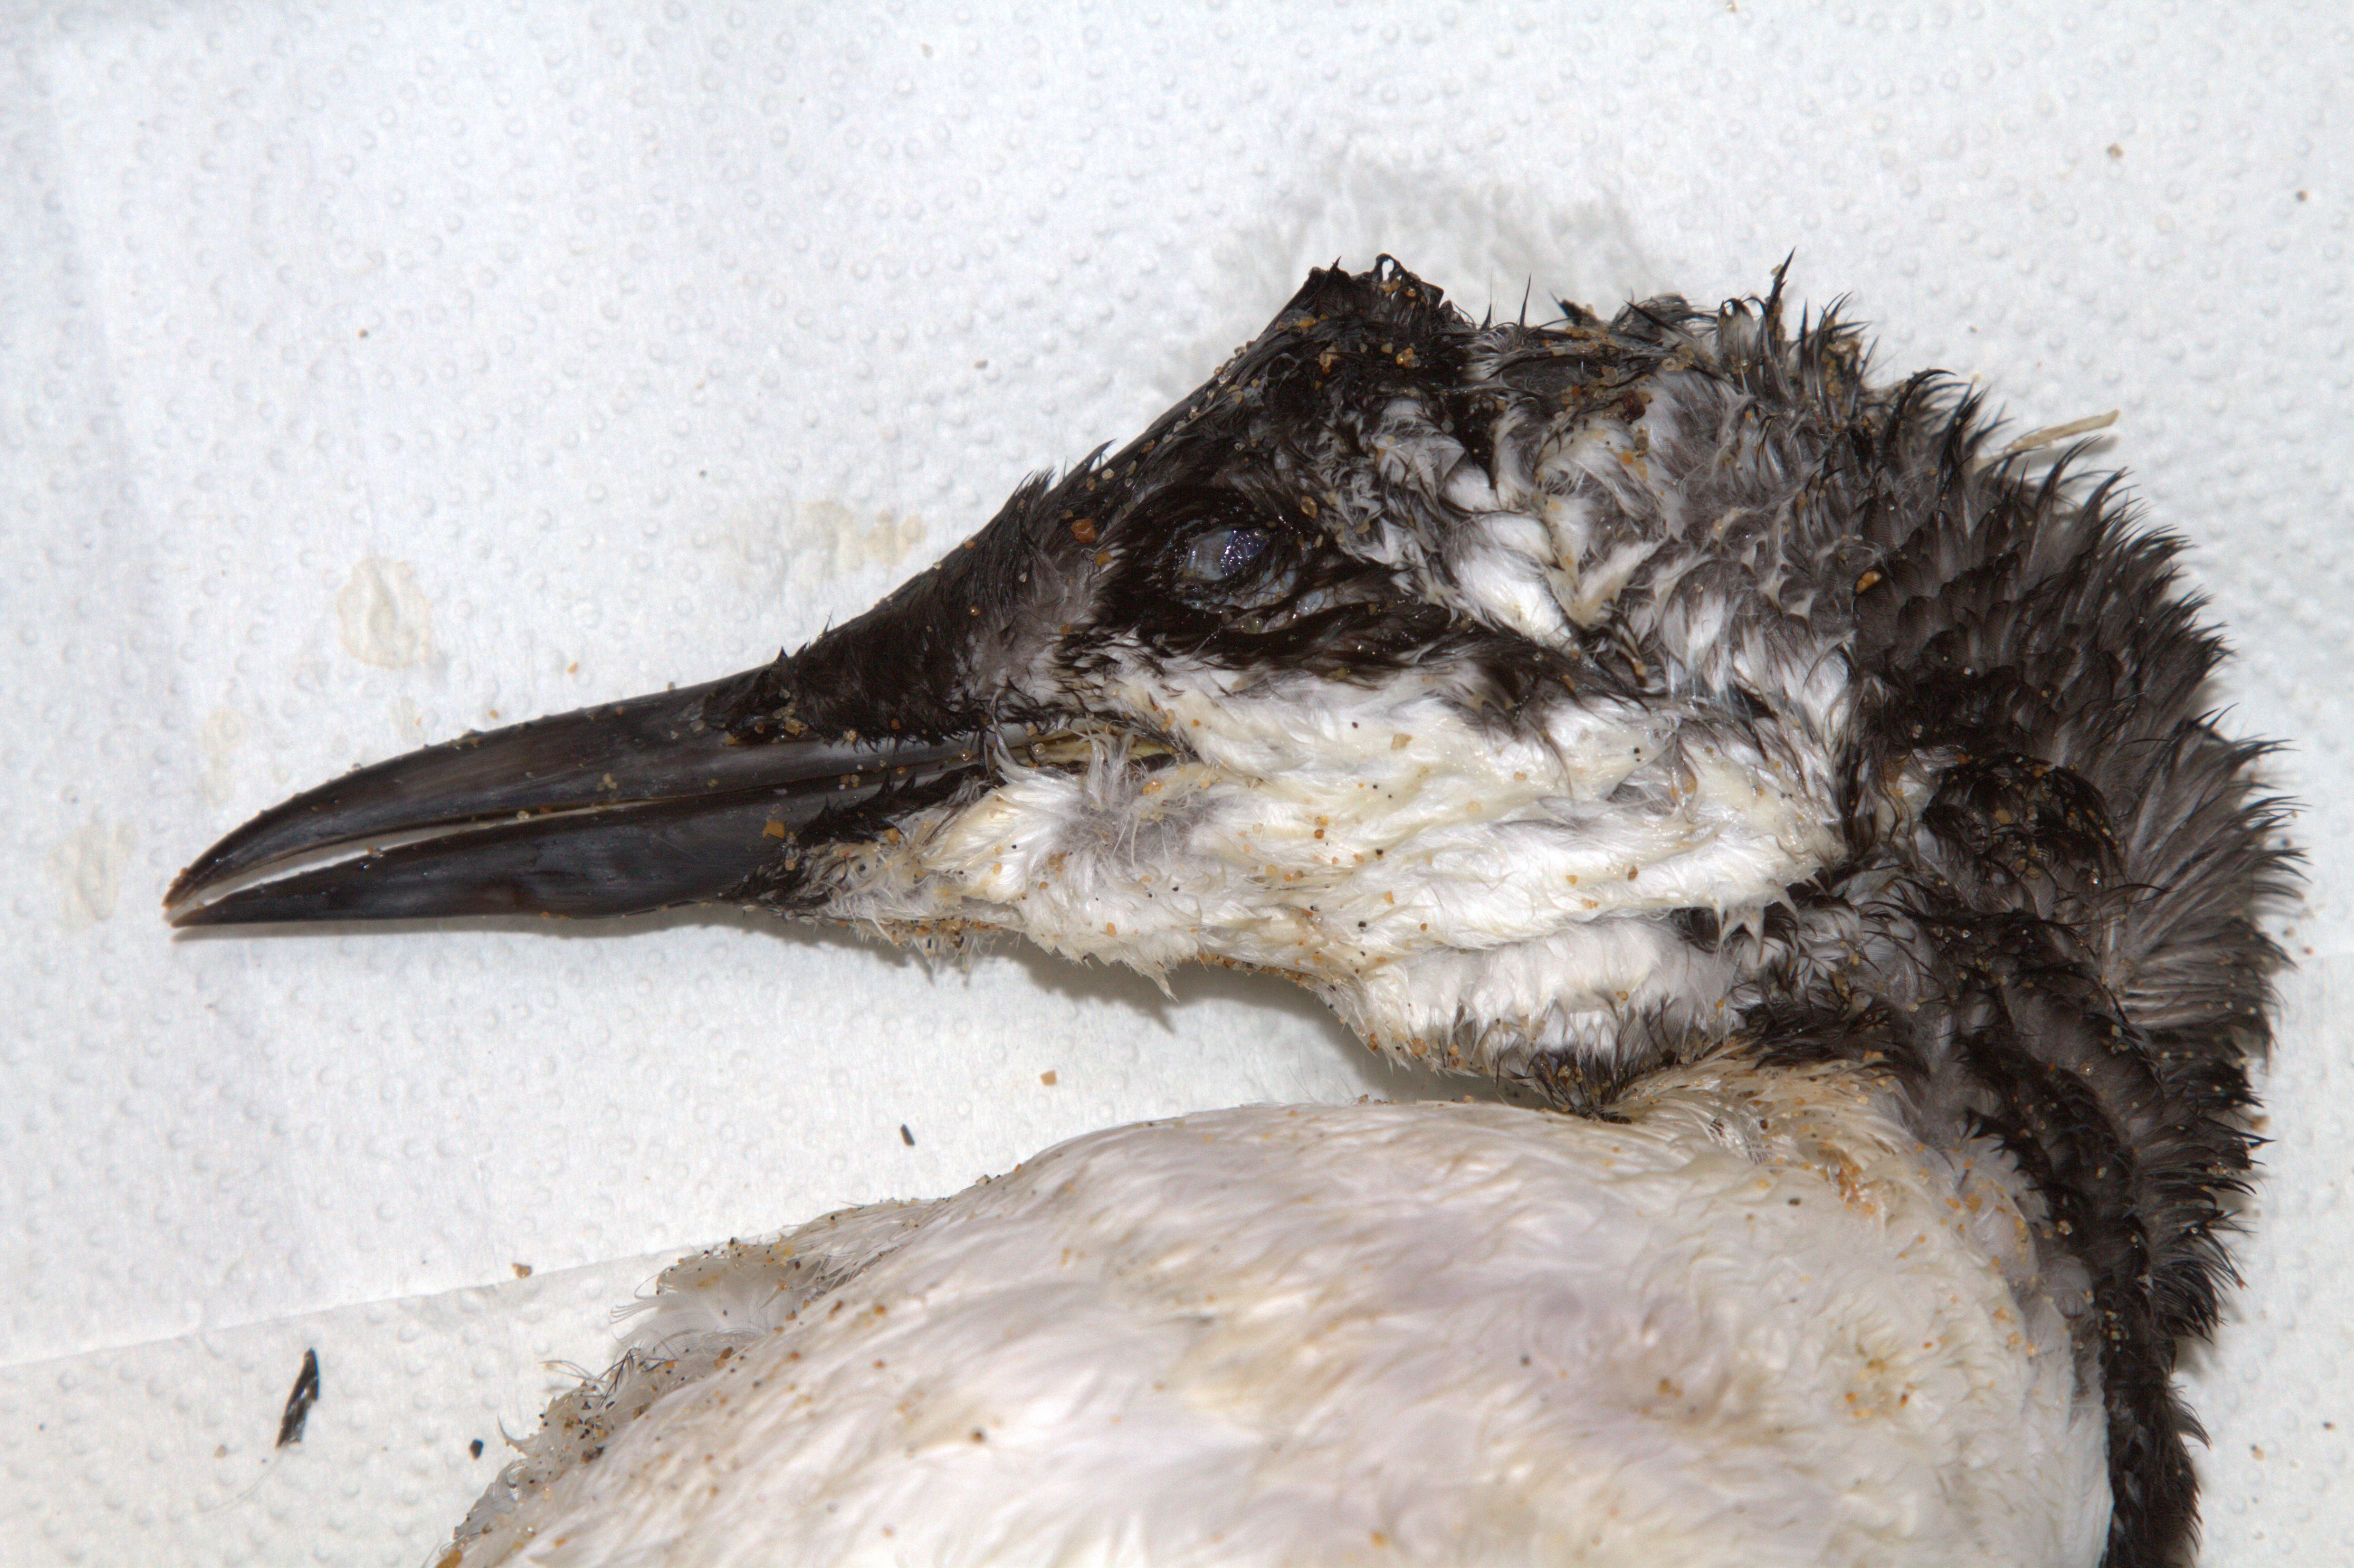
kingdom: Animalia
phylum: Chordata
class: Aves
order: Charadriiformes
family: Alcidae
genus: Uria
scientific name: Uria aalge
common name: Common murre
